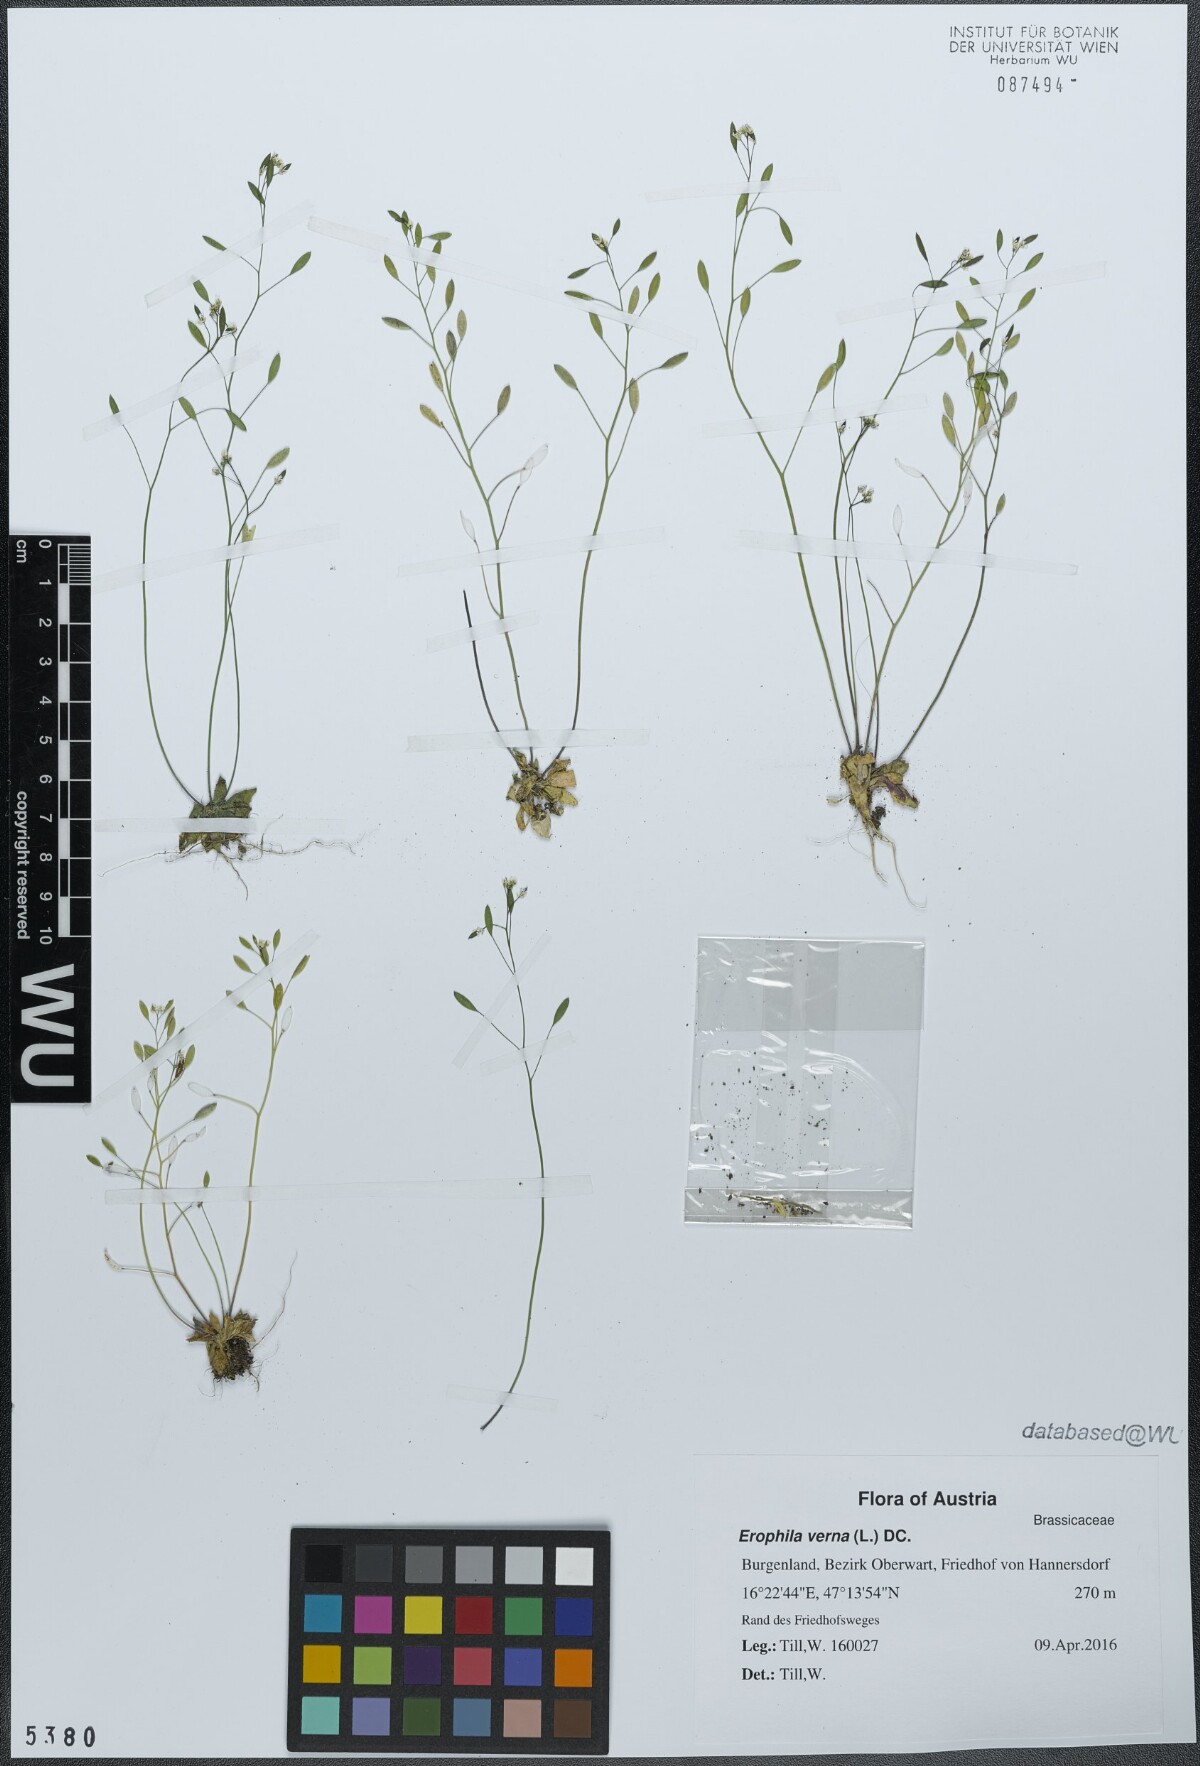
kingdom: Plantae
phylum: Tracheophyta
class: Magnoliopsida
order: Brassicales
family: Brassicaceae
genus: Draba
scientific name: Draba verna
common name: Spring draba
